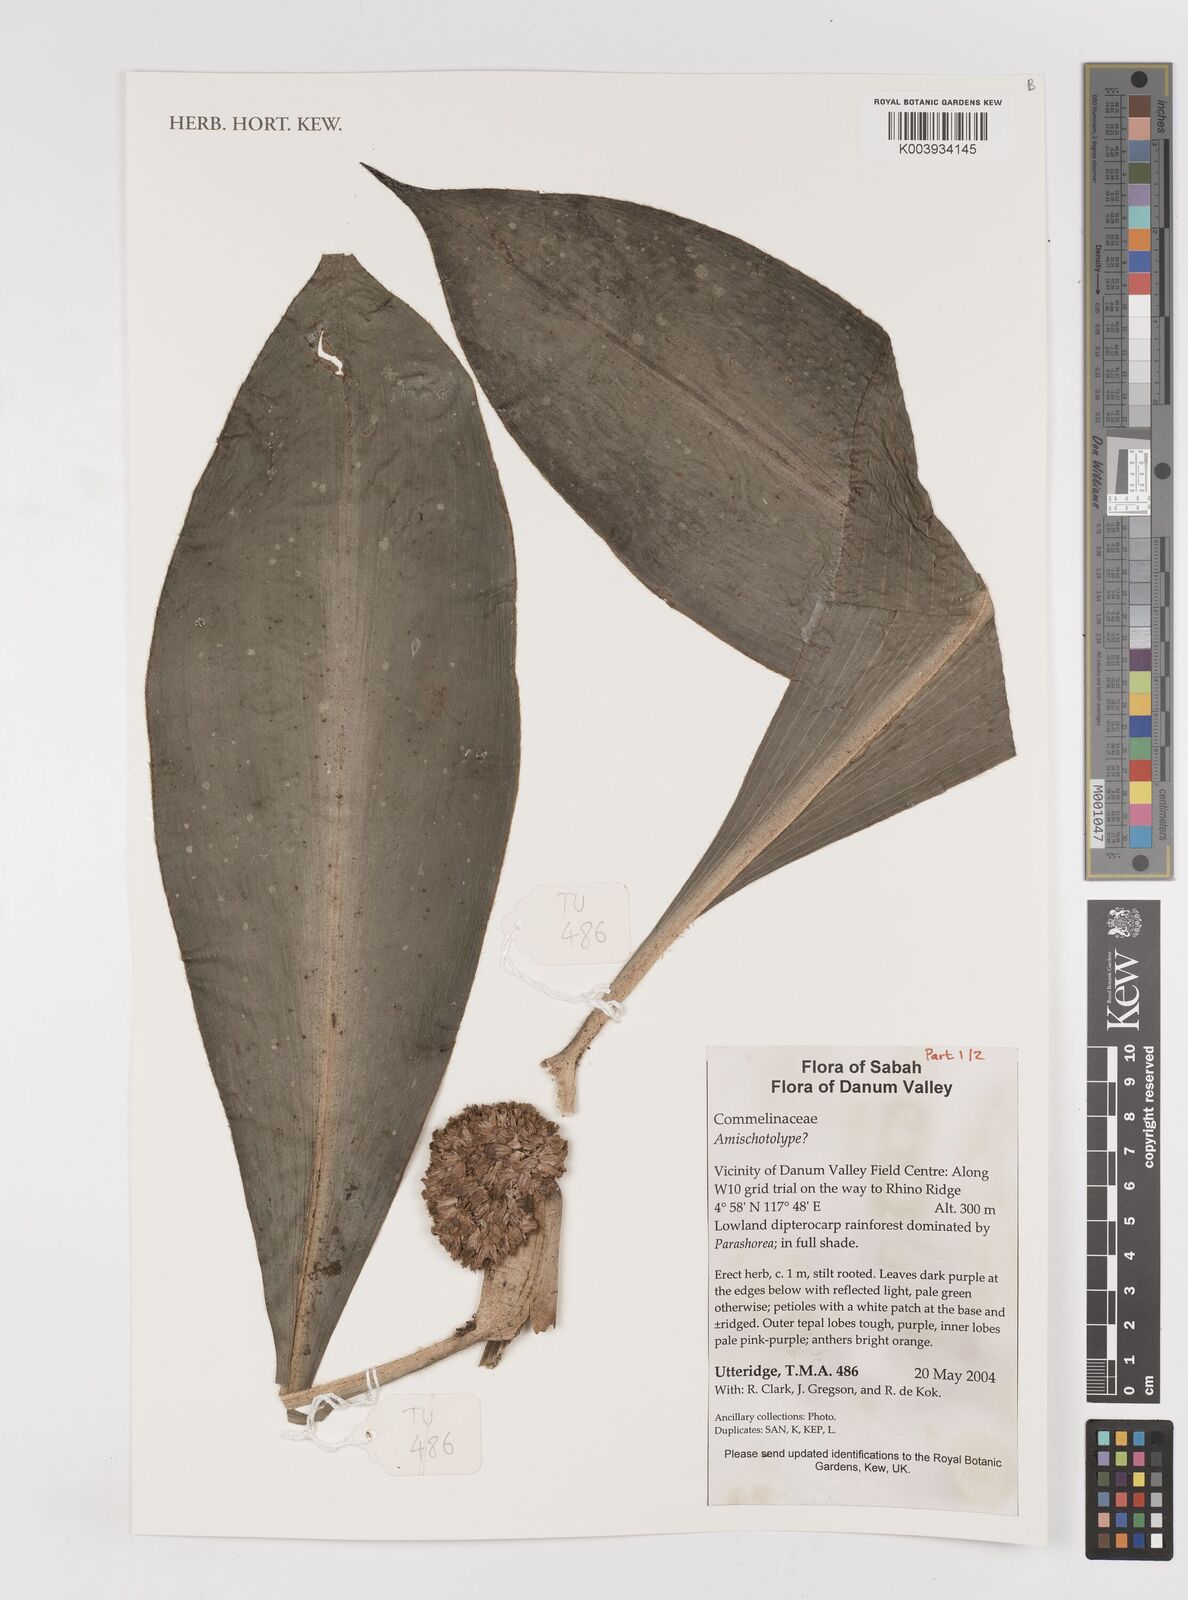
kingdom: Plantae
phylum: Tracheophyta
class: Liliopsida
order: Commelinales
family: Commelinaceae
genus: Amischotolype
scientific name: Amischotolype
